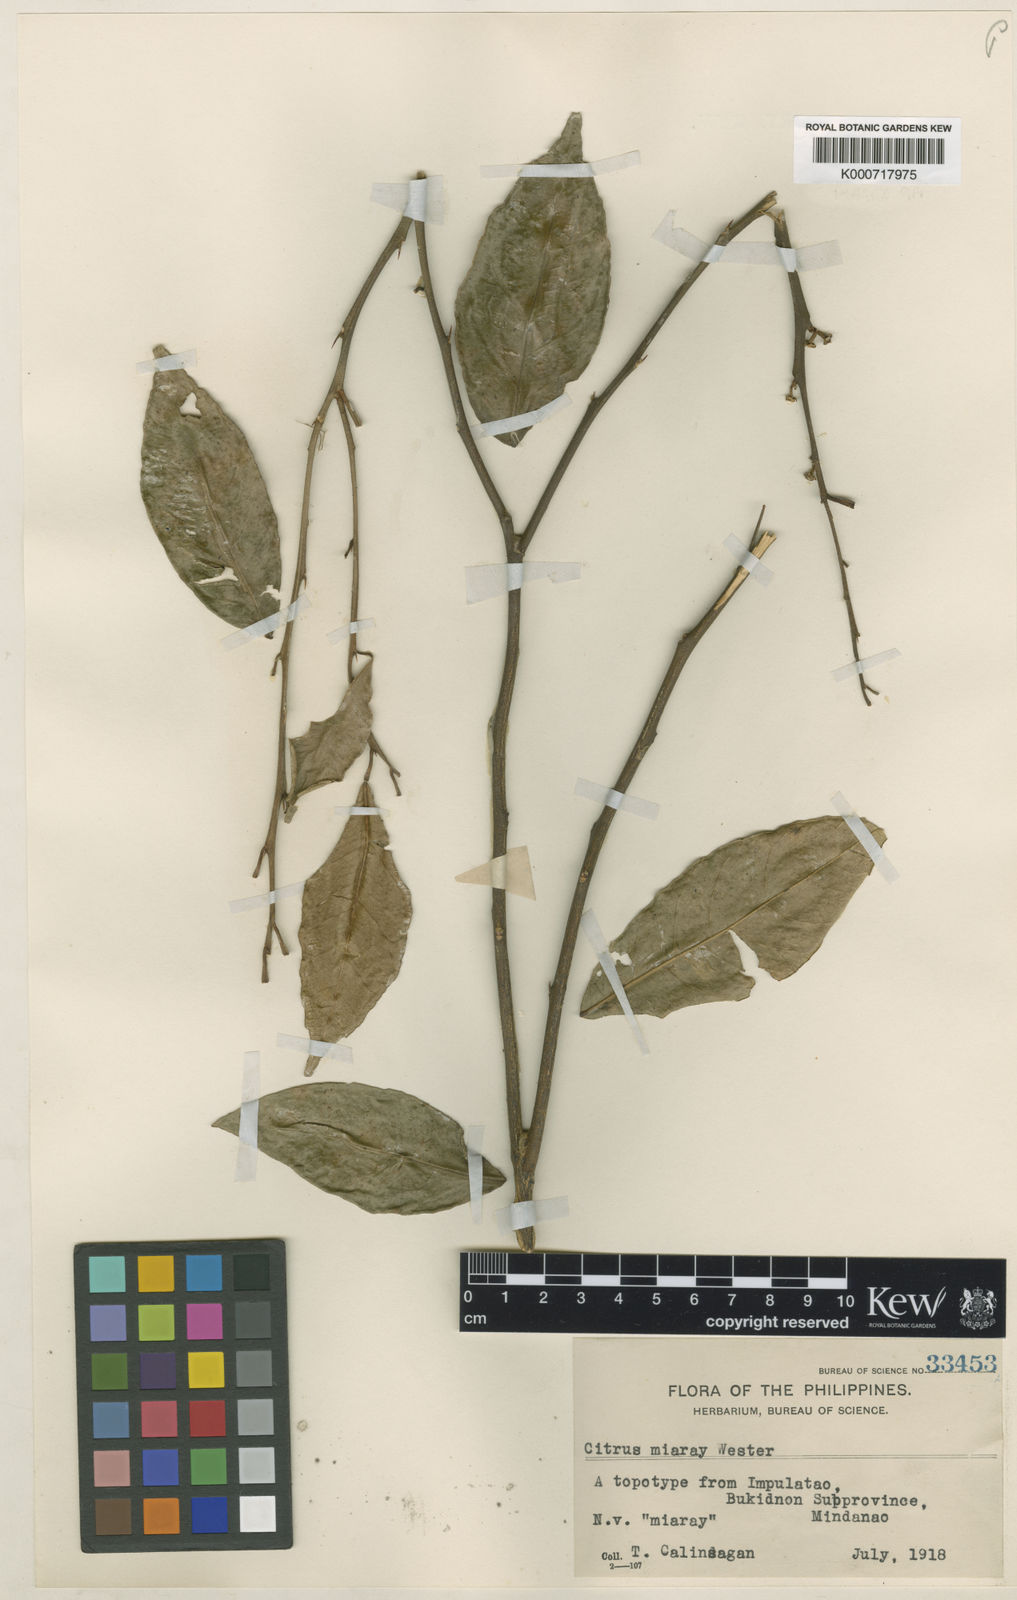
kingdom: Plantae
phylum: Tracheophyta
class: Magnoliopsida
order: Sapindales
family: Rutaceae
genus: Citrus
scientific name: Citrus miaray
